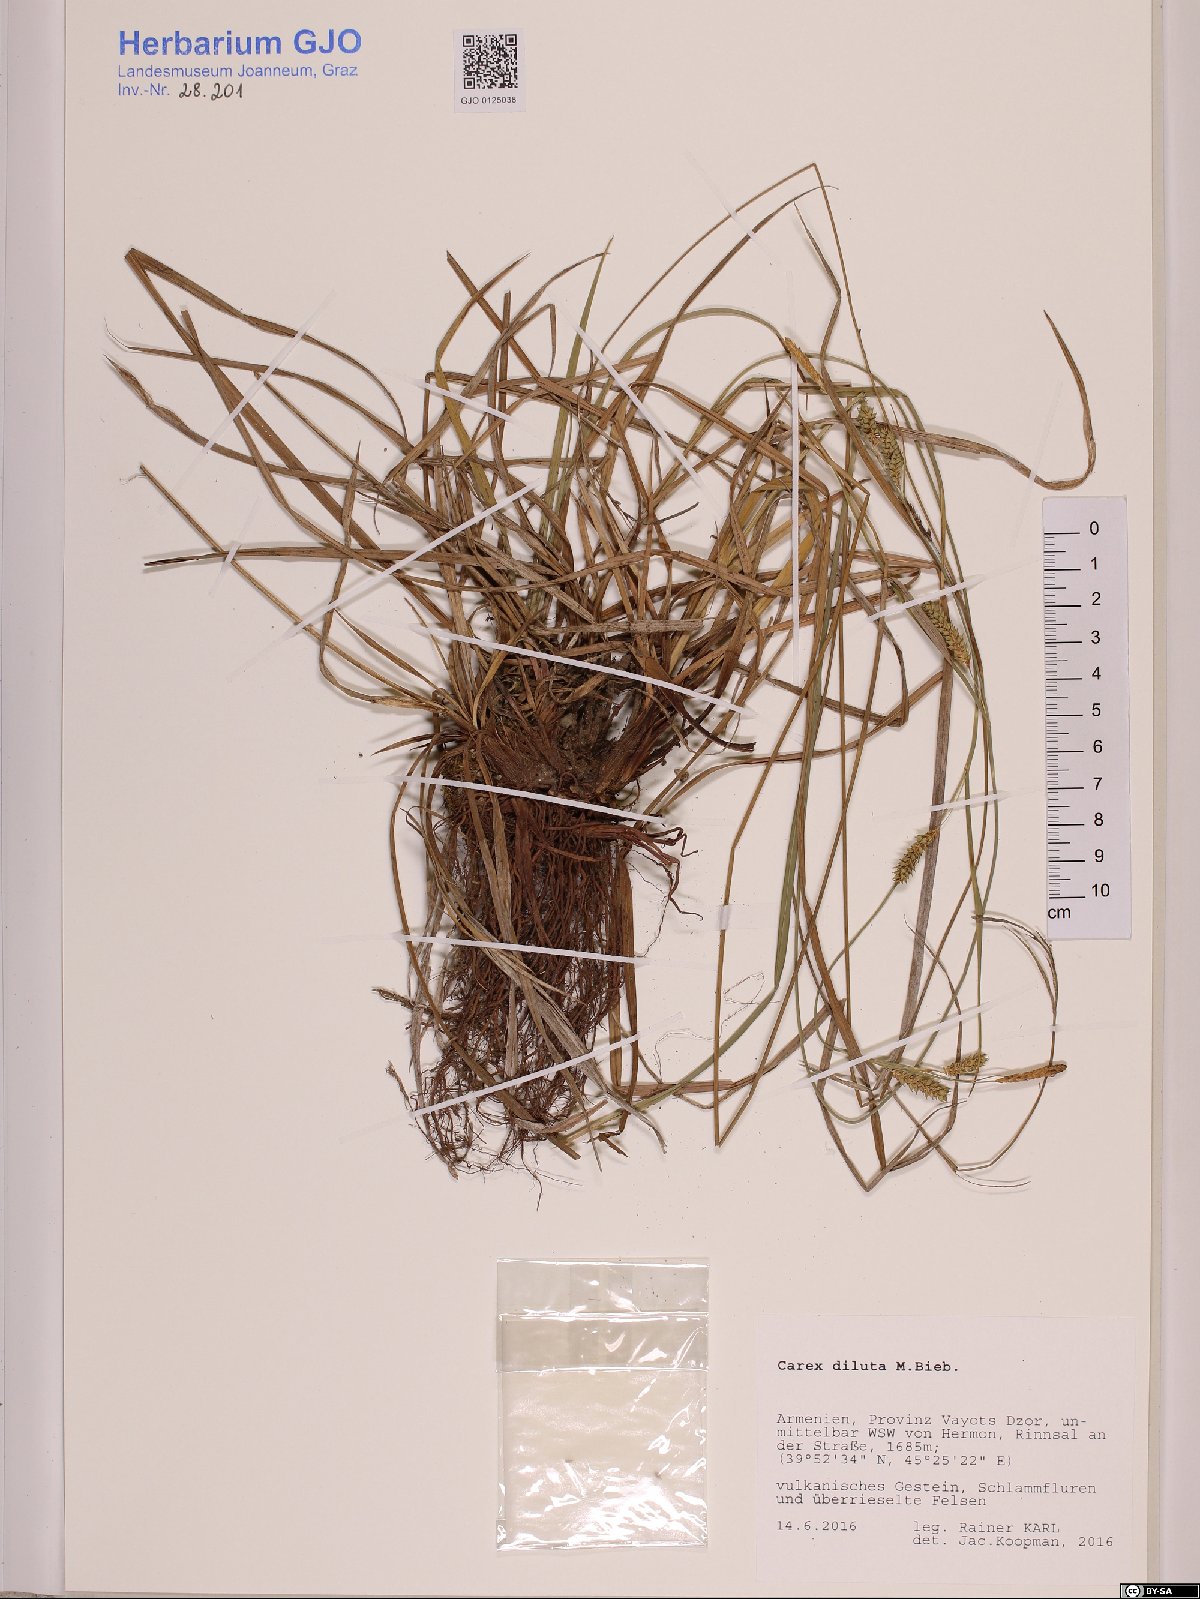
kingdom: Plantae
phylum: Tracheophyta
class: Liliopsida
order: Poales
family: Cyperaceae
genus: Carex
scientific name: Carex diluta
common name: Sedge
